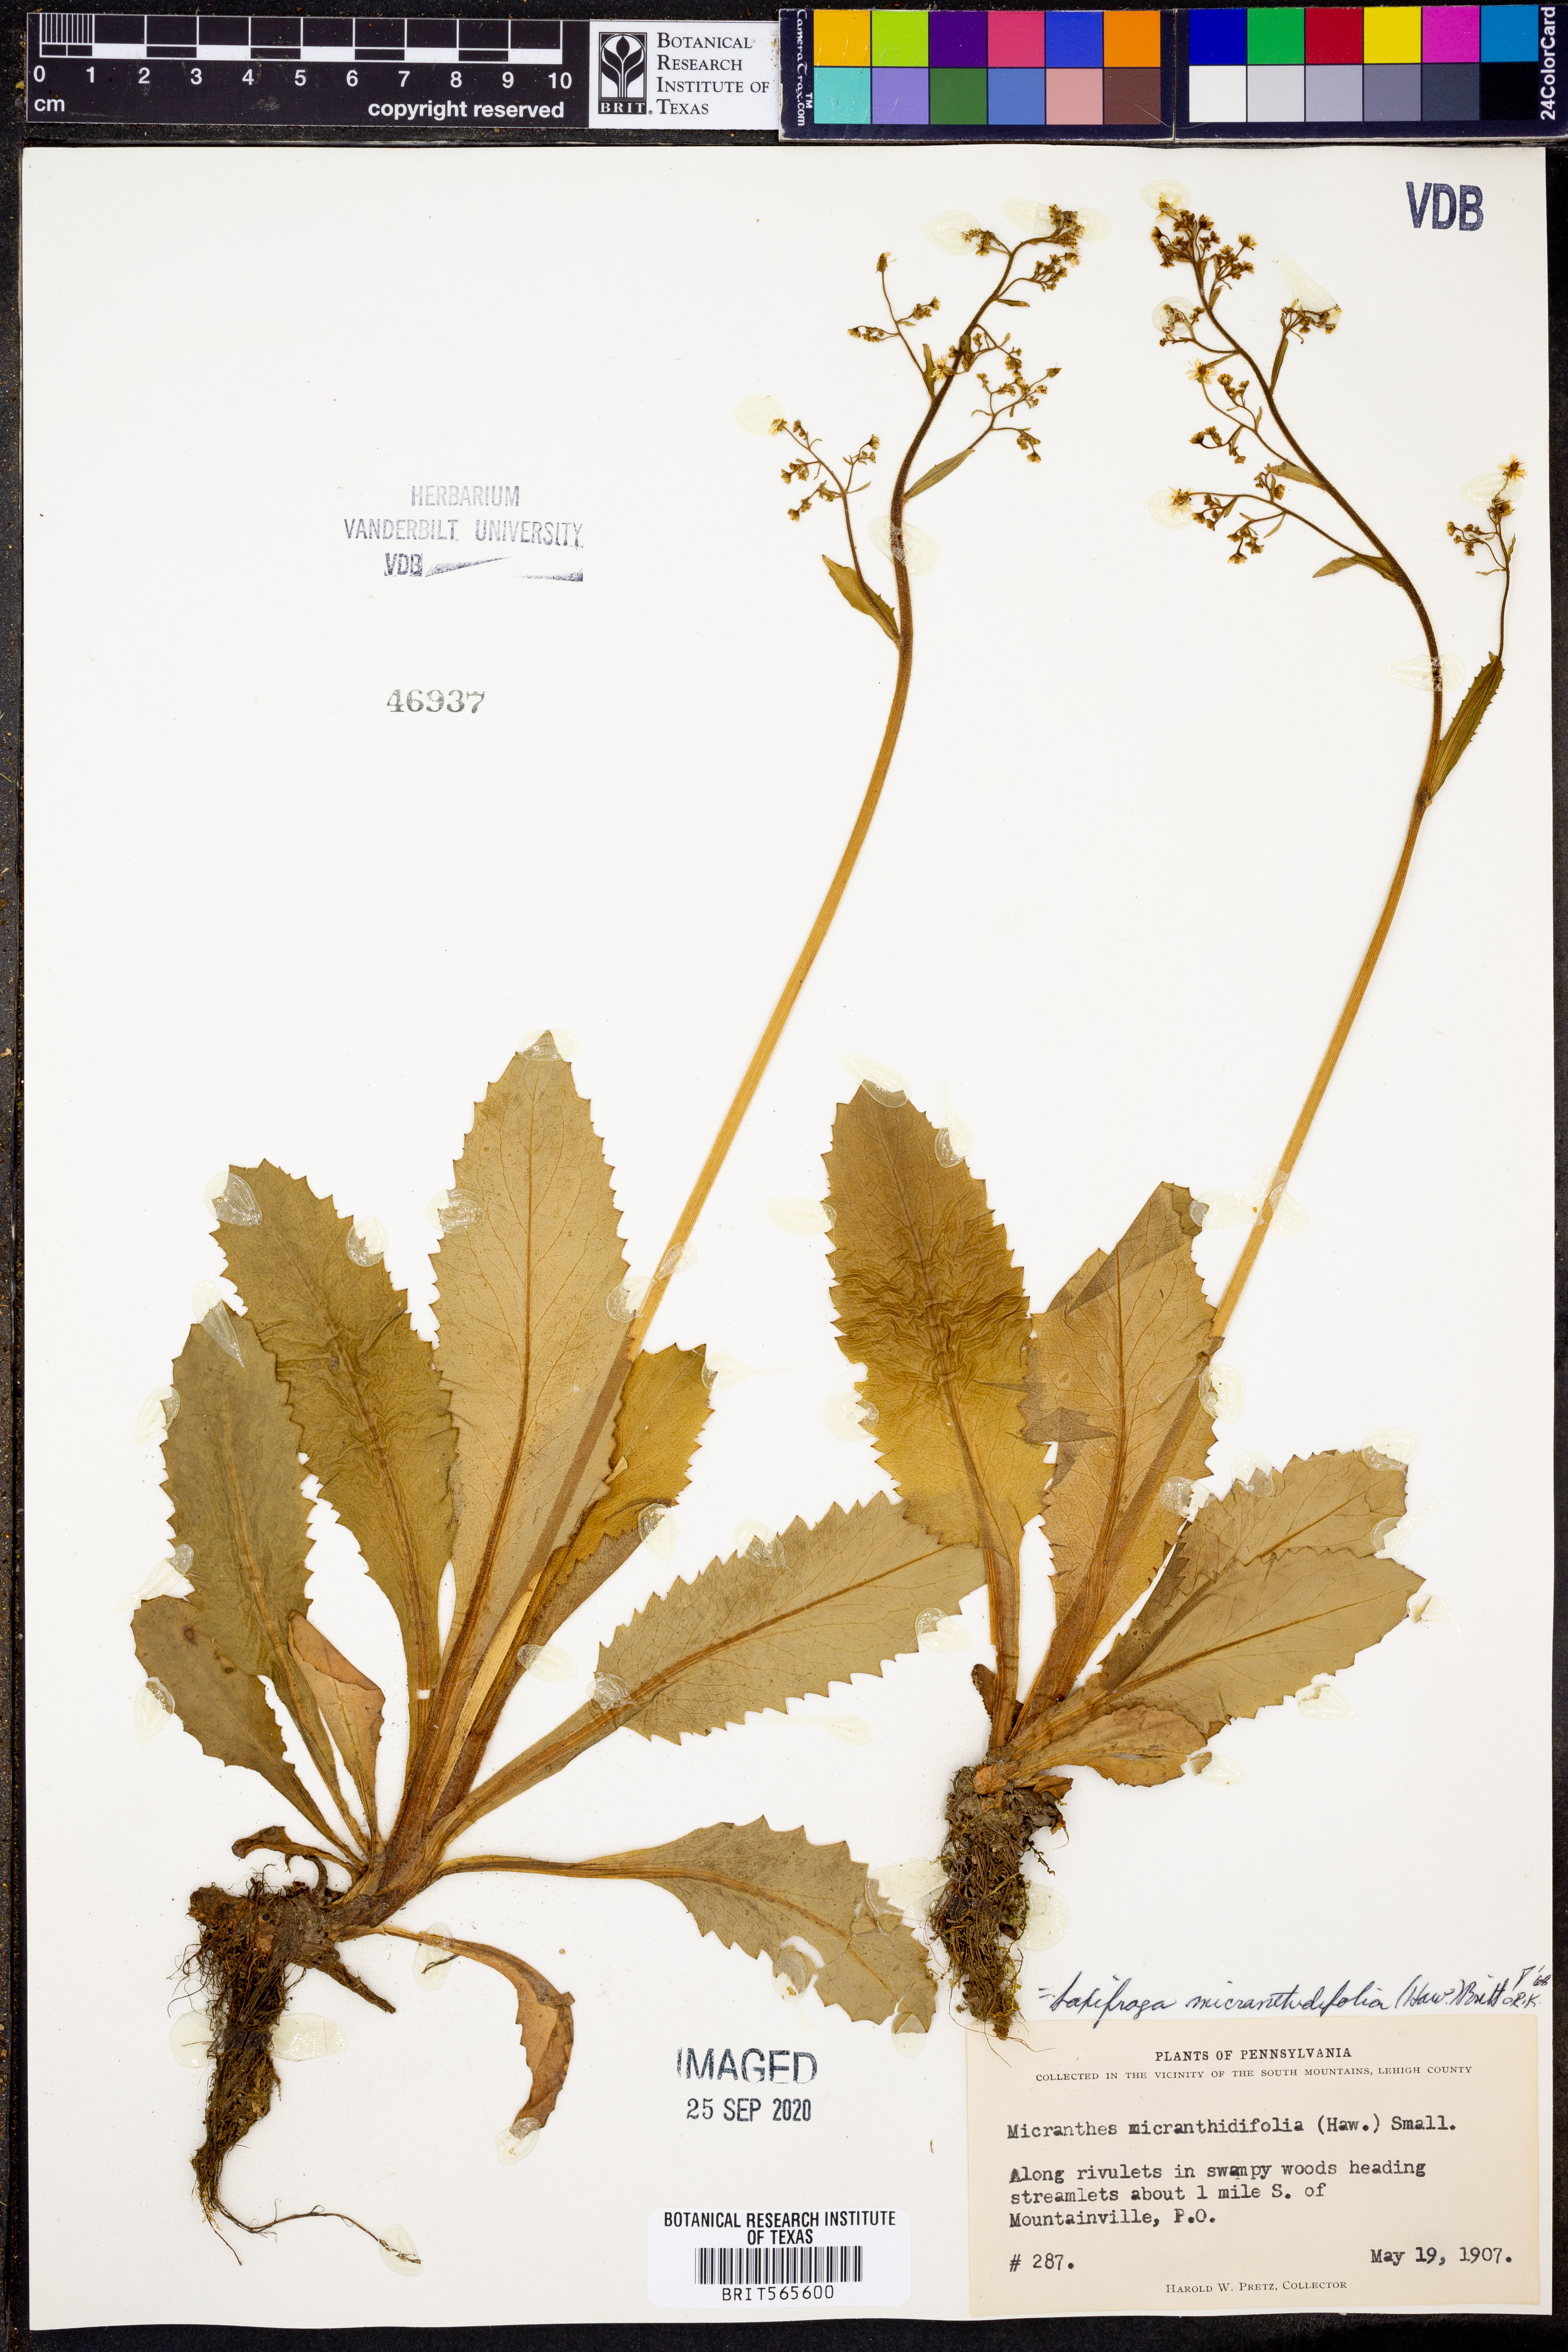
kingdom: Plantae
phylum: Tracheophyta
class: Magnoliopsida
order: Saxifragales
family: Saxifragaceae
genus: Micranthes
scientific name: Micranthes micranthidifolia
